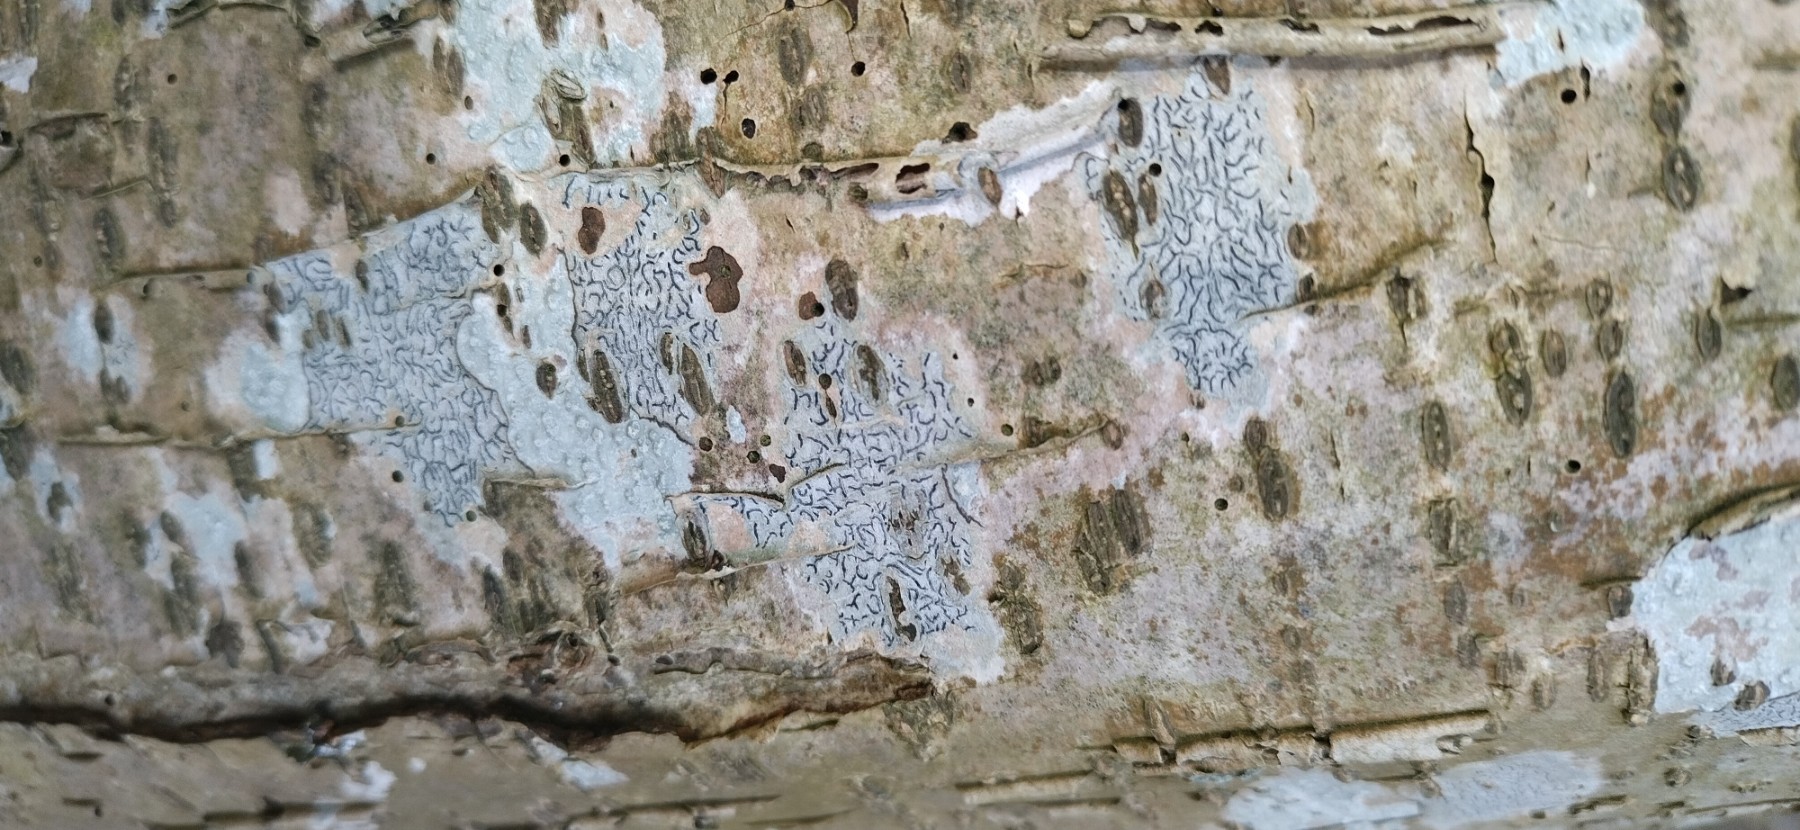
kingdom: Fungi
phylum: Ascomycota
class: Lecanoromycetes
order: Ostropales
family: Graphidaceae
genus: Graphis
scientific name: Graphis scripta
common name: almindelig skriftlav
